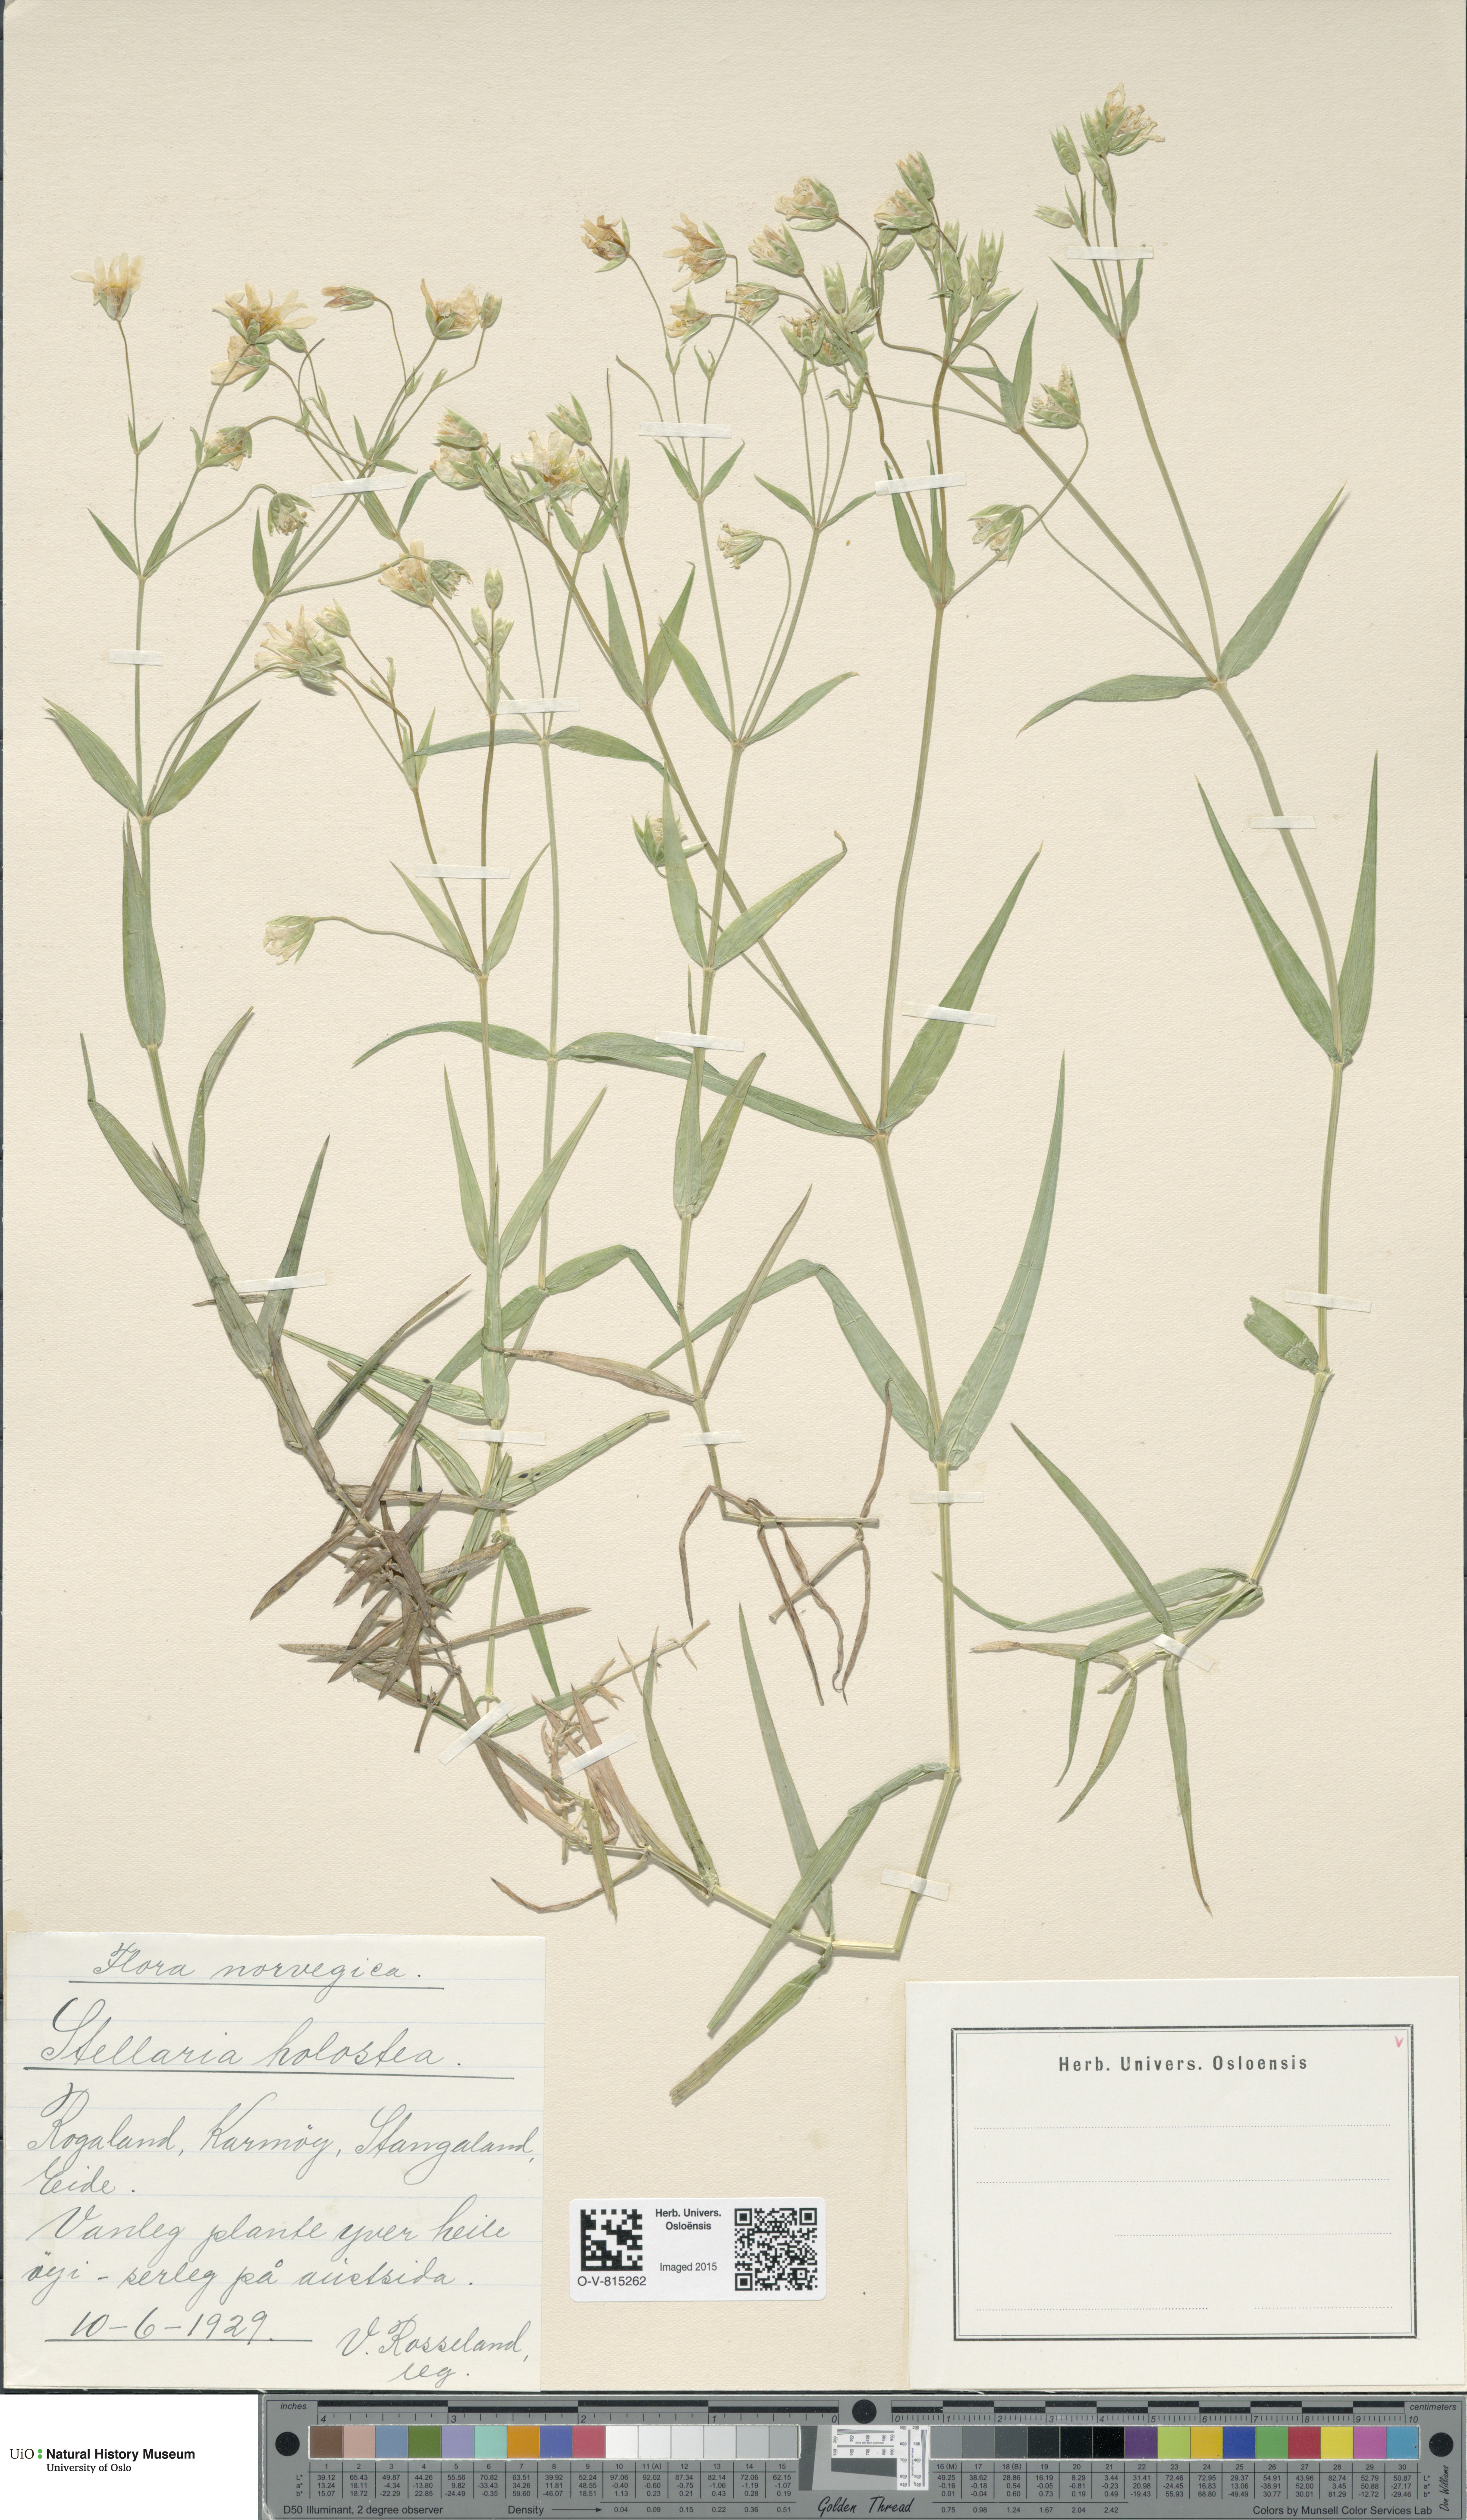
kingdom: Plantae
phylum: Tracheophyta
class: Magnoliopsida
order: Caryophyllales
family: Caryophyllaceae
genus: Rabelera
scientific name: Rabelera holostea
